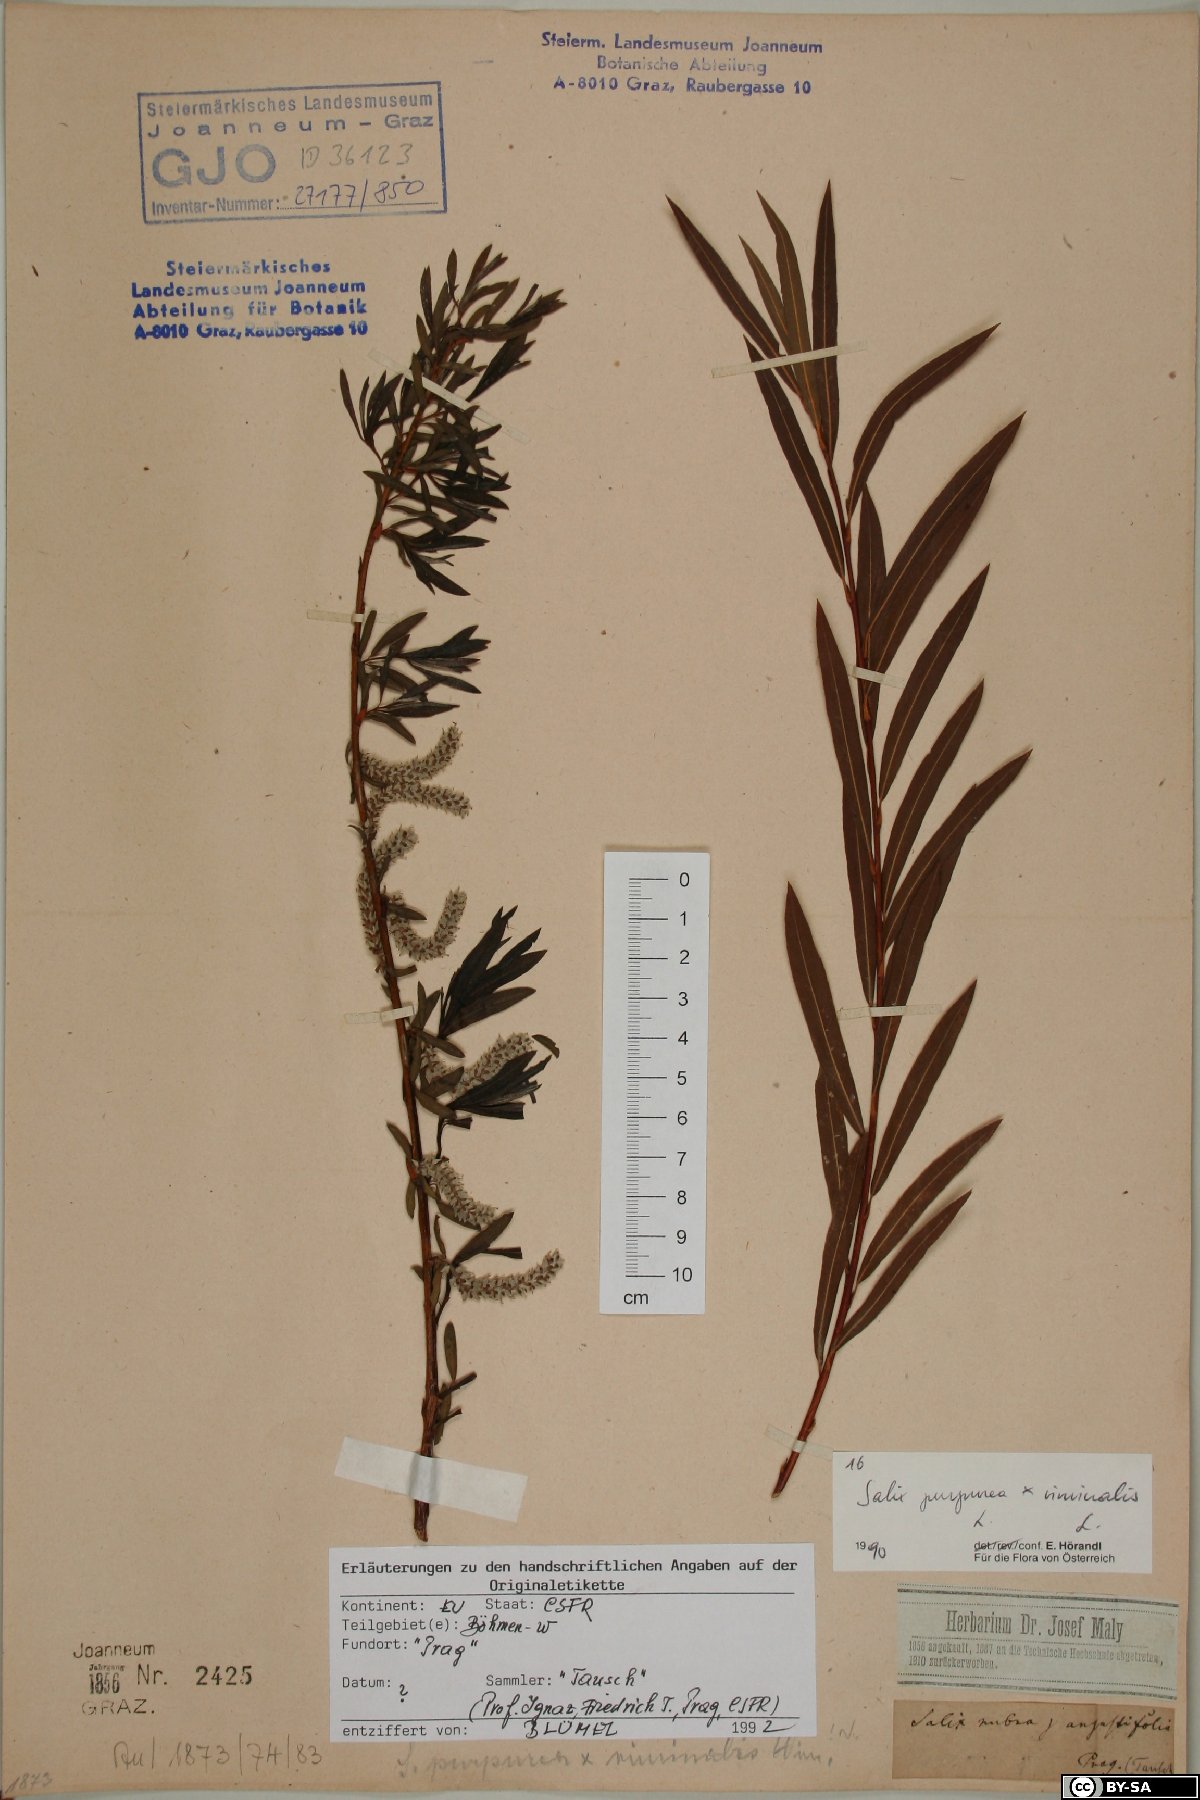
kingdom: Plantae
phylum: Tracheophyta
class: Magnoliopsida
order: Malpighiales
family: Salicaceae
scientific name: Salicaceae
